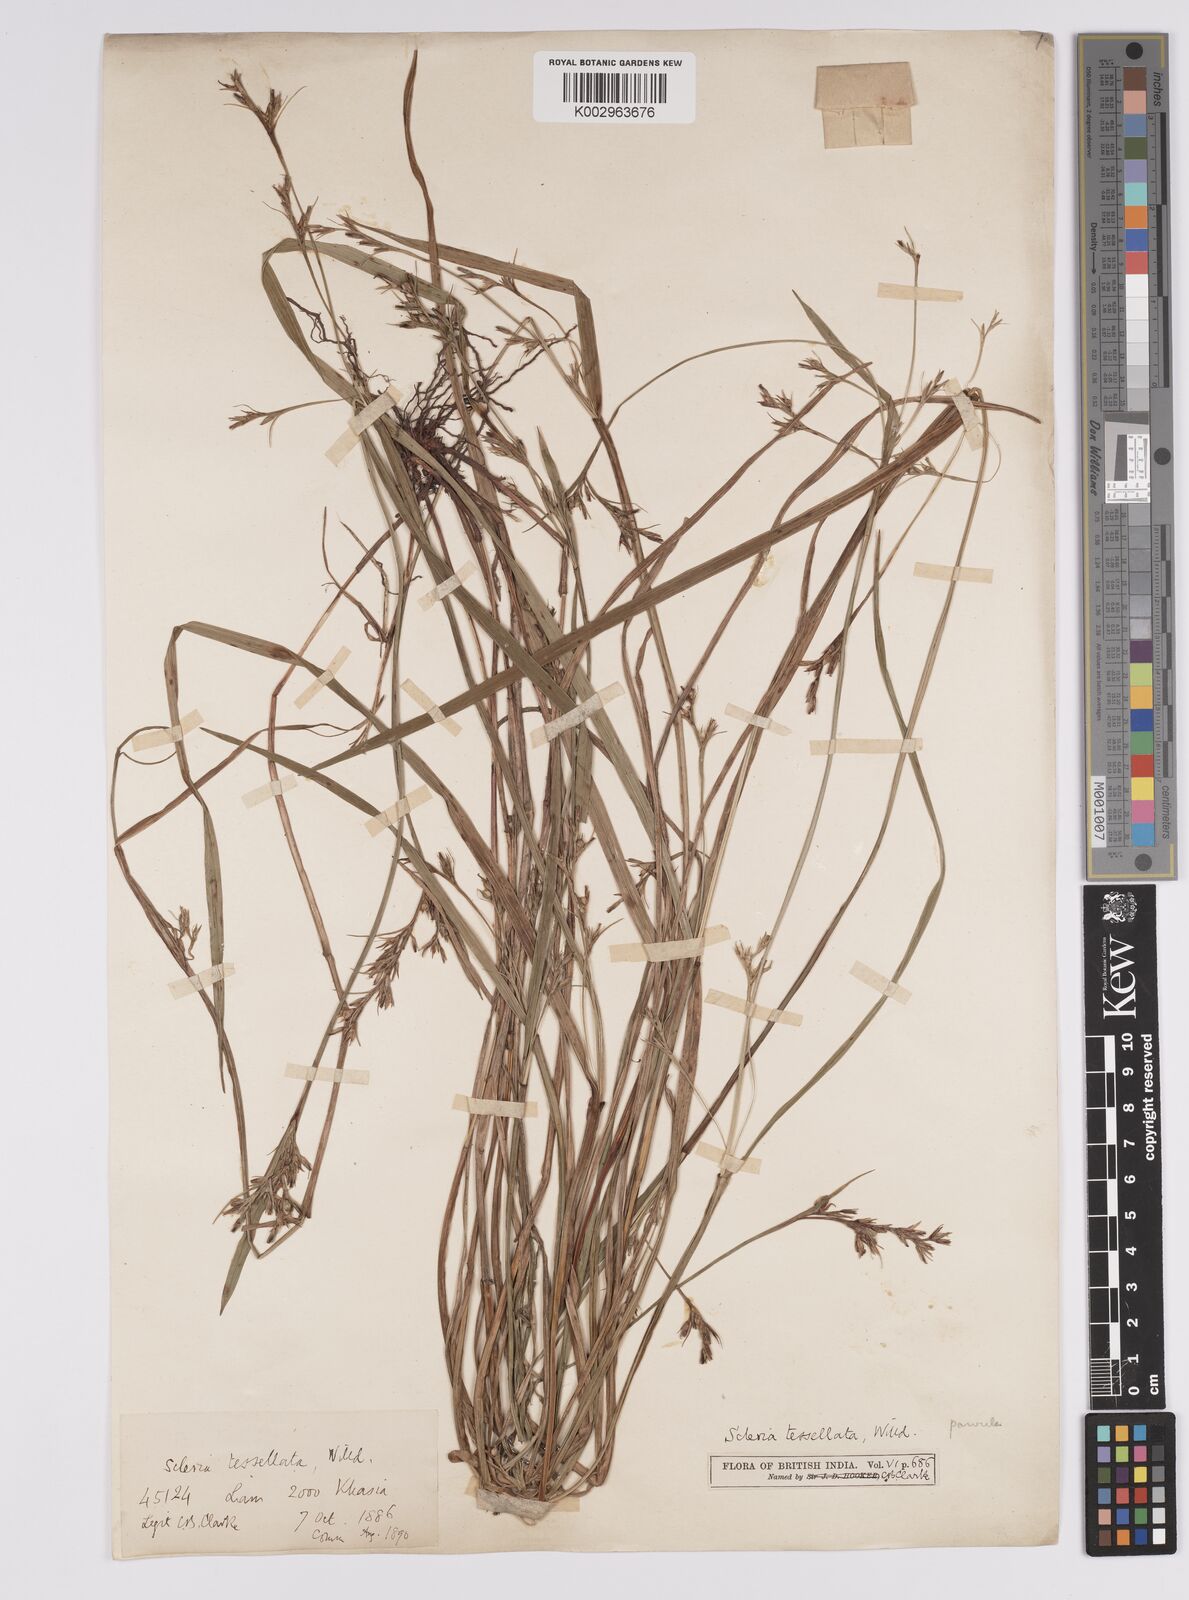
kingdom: Plantae
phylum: Tracheophyta
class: Liliopsida
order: Poales
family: Cyperaceae
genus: Scleria
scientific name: Scleria parvula
